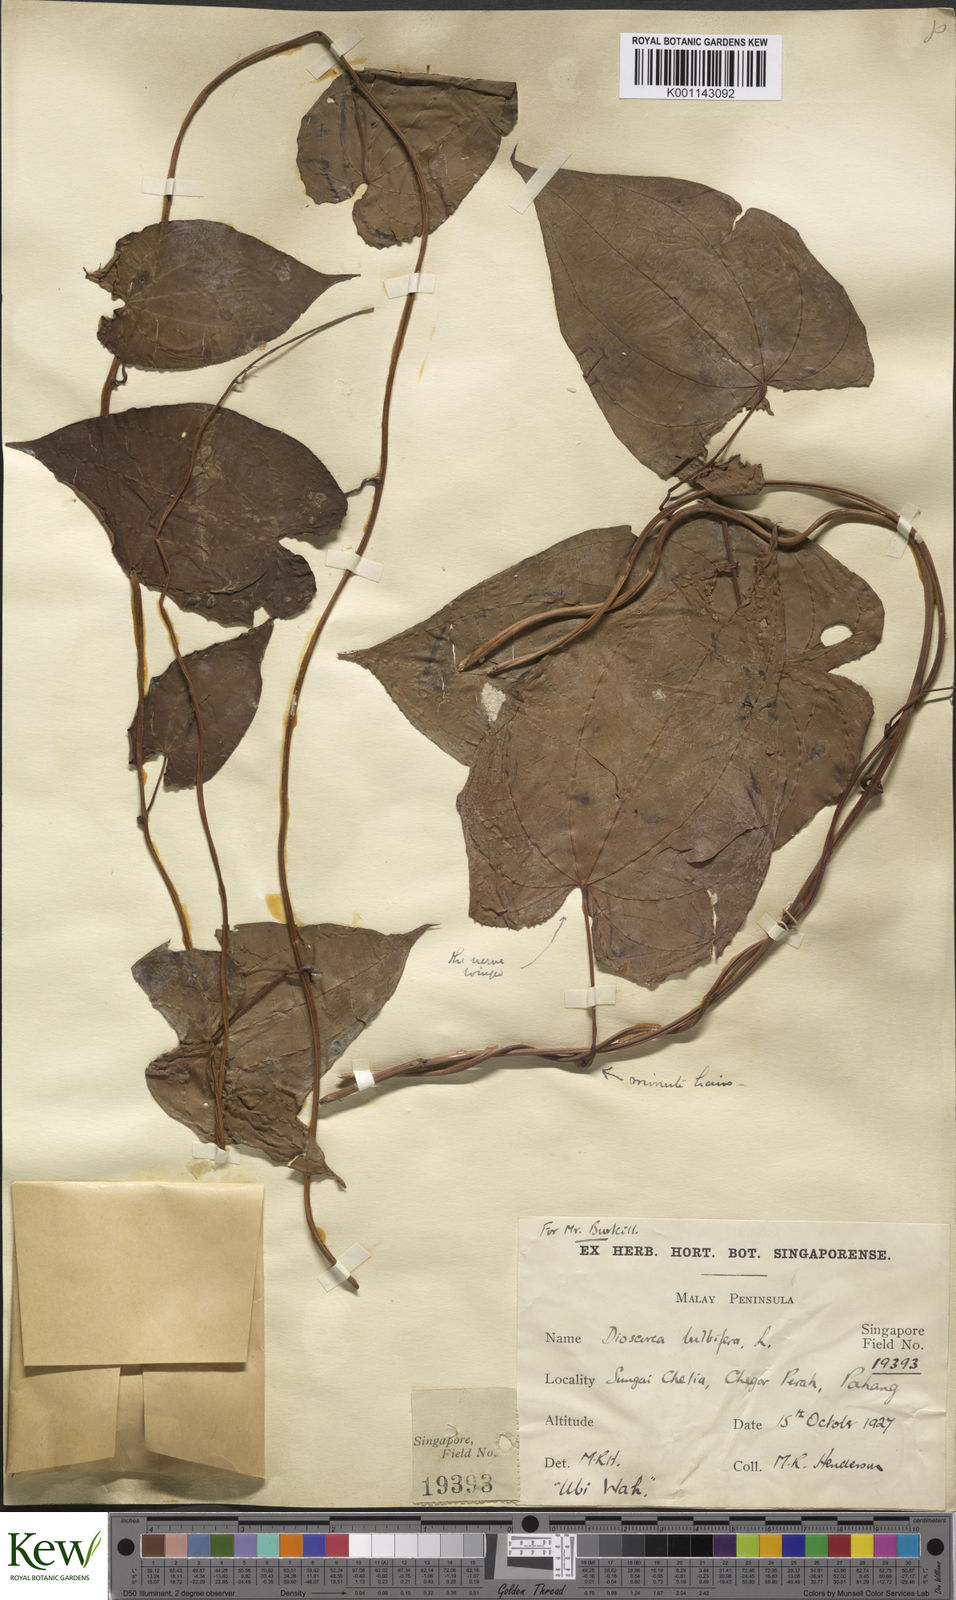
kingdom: Plantae
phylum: Tracheophyta
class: Liliopsida
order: Dioscoreales
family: Dioscoreaceae
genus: Dioscorea
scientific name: Dioscorea bulbifera
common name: Air yam
